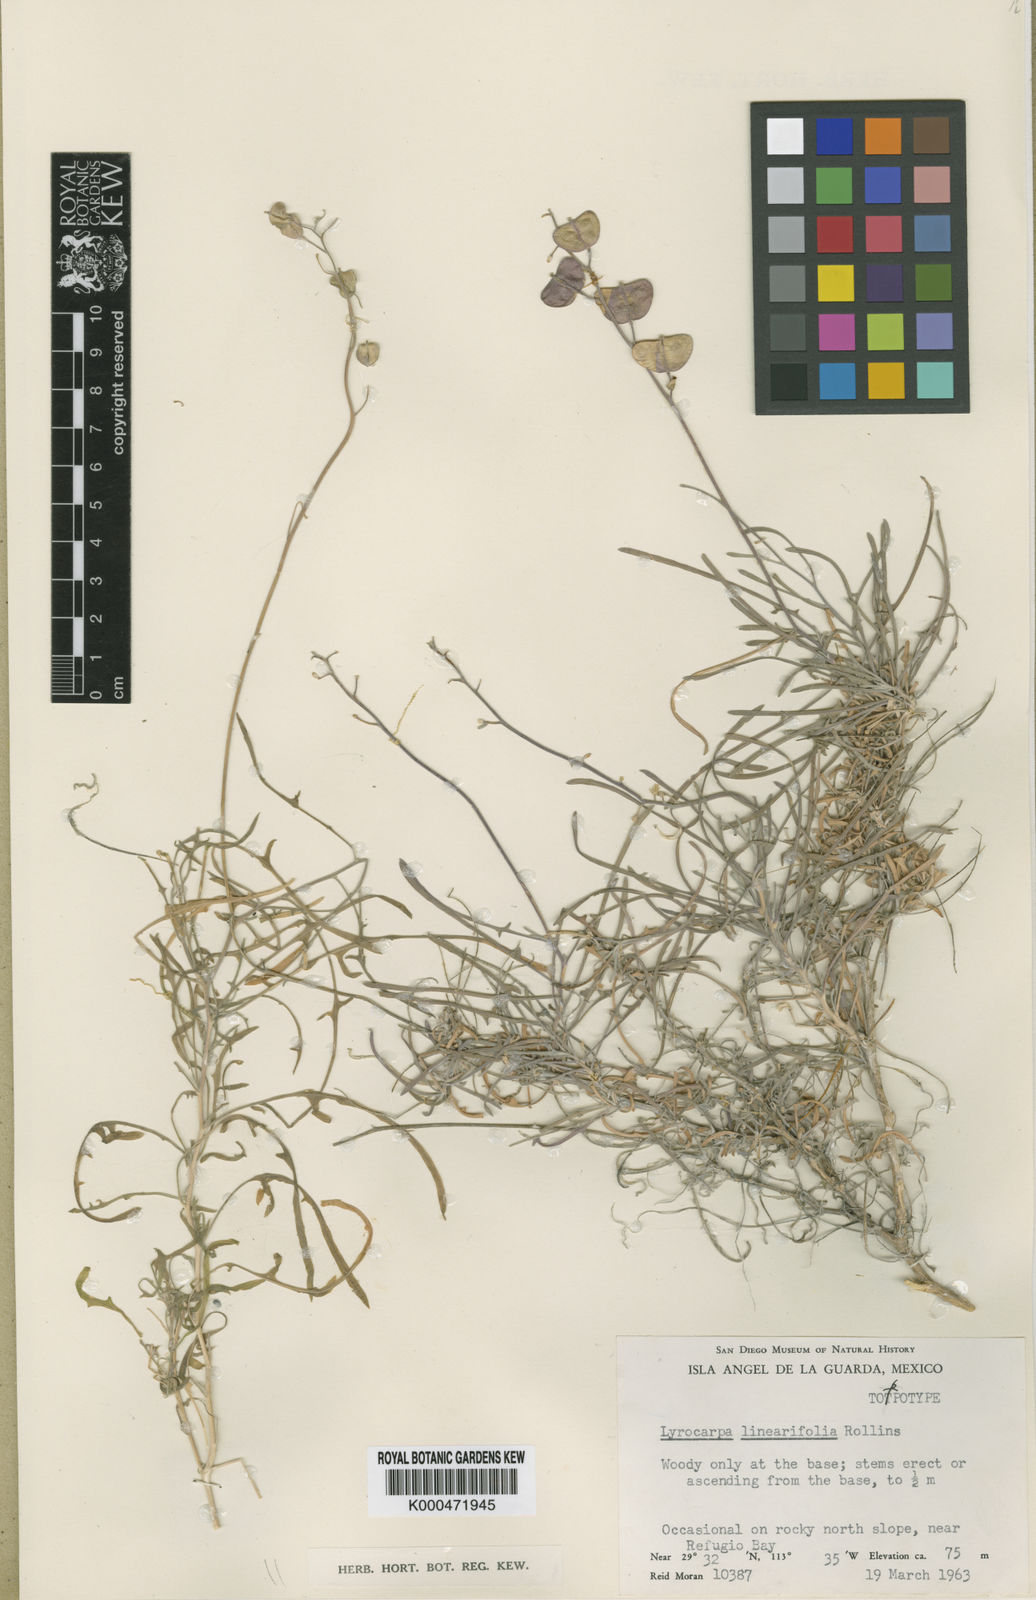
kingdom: Plantae
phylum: Tracheophyta
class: Magnoliopsida
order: Brassicales
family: Brassicaceae
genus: Lyrocarpa
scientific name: Lyrocarpa linearifolia
